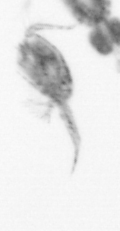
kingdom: Animalia
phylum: Arthropoda
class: Copepoda
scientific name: Copepoda
